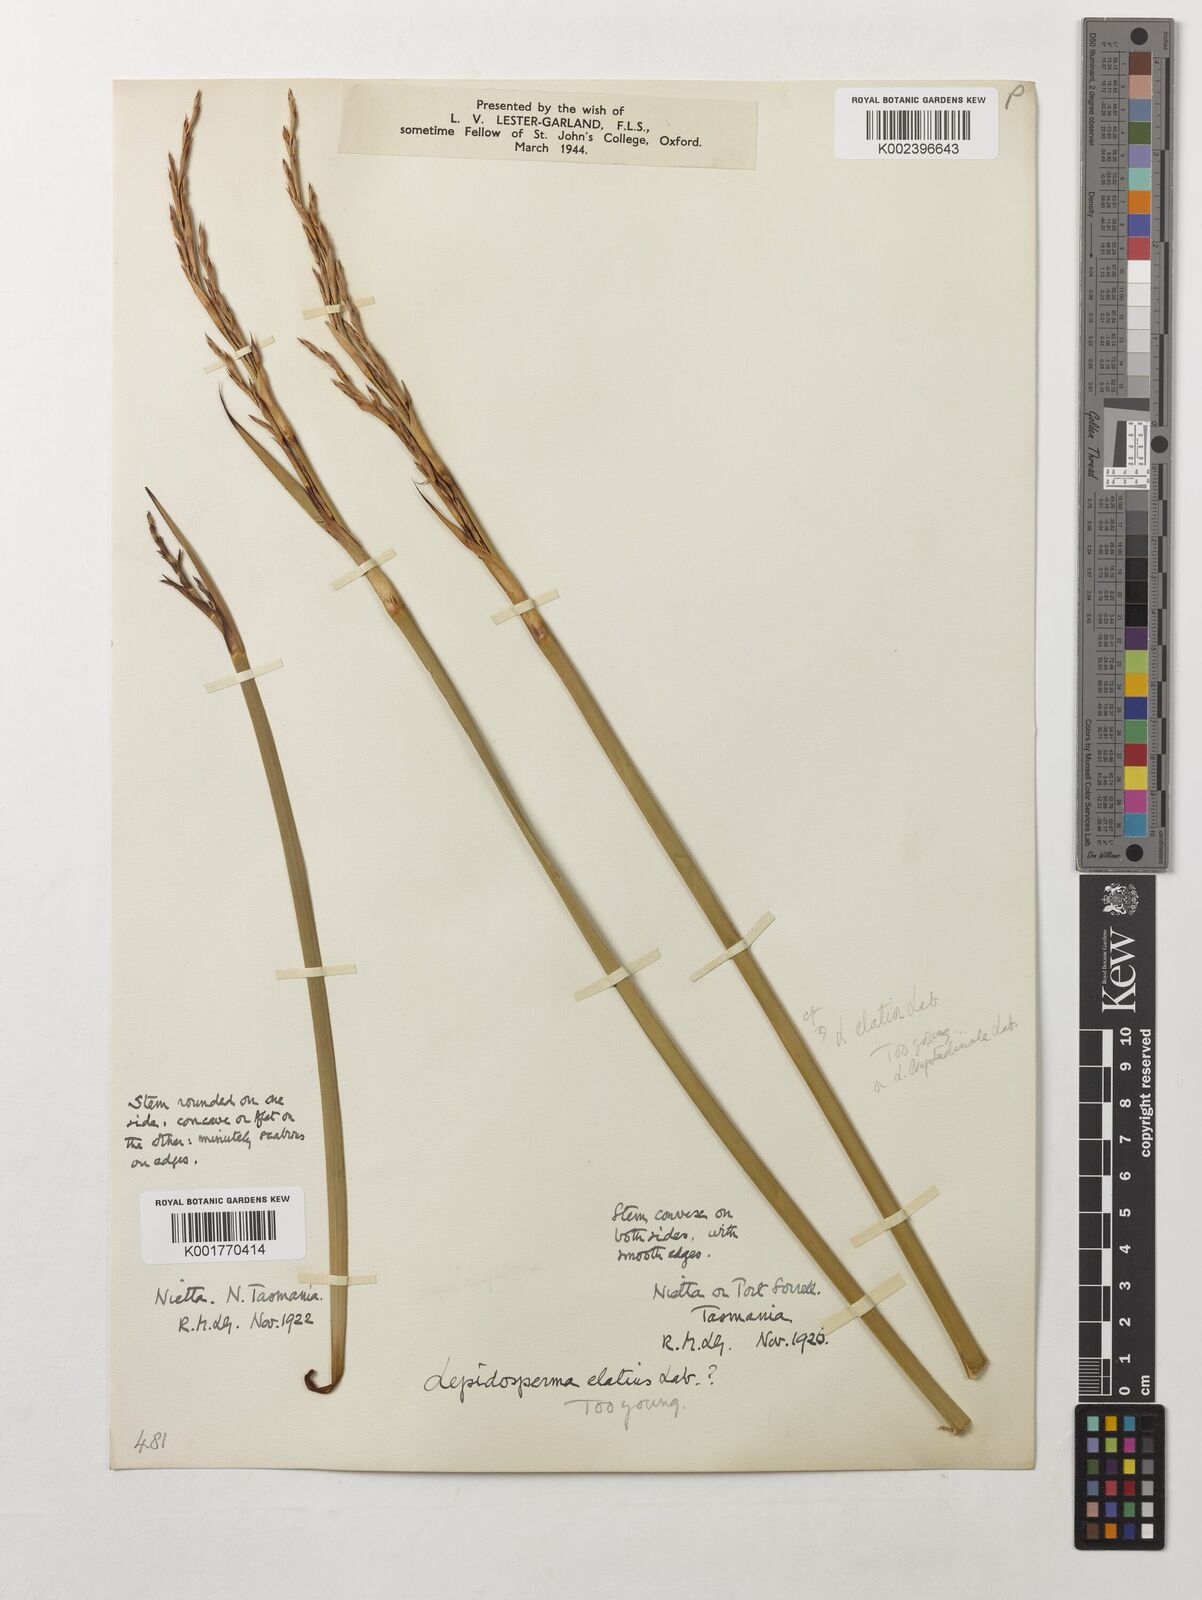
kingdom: Plantae
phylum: Tracheophyta
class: Liliopsida
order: Poales
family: Cyperaceae
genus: Lepidosperma
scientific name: Lepidosperma elatius
